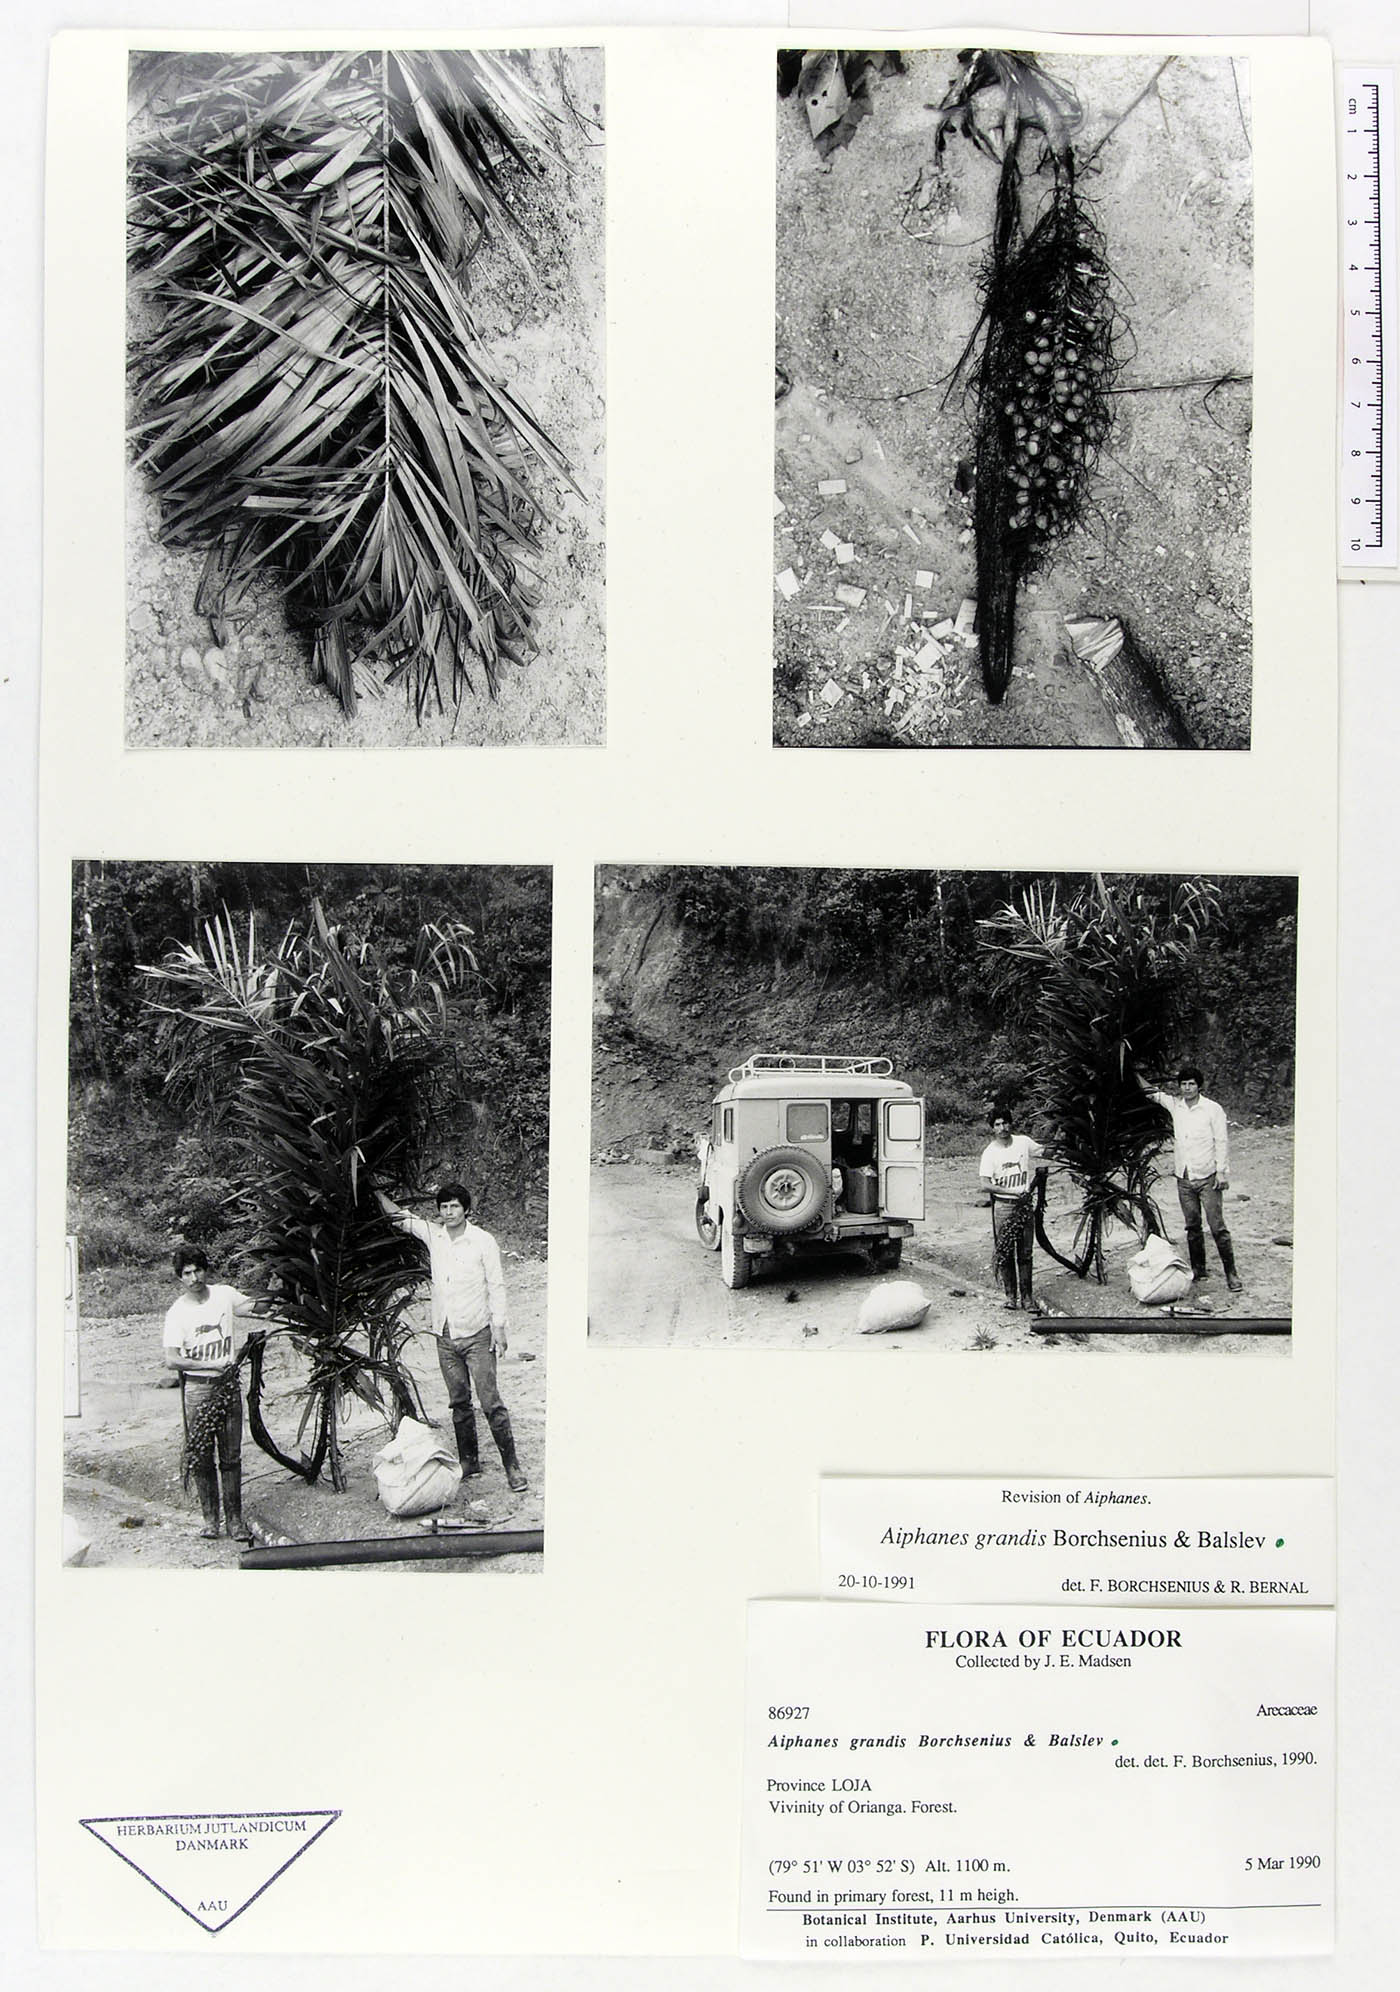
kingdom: Plantae
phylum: Tracheophyta
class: Liliopsida
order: Arecales
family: Arecaceae
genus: Aiphanes
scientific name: Aiphanes grandis
